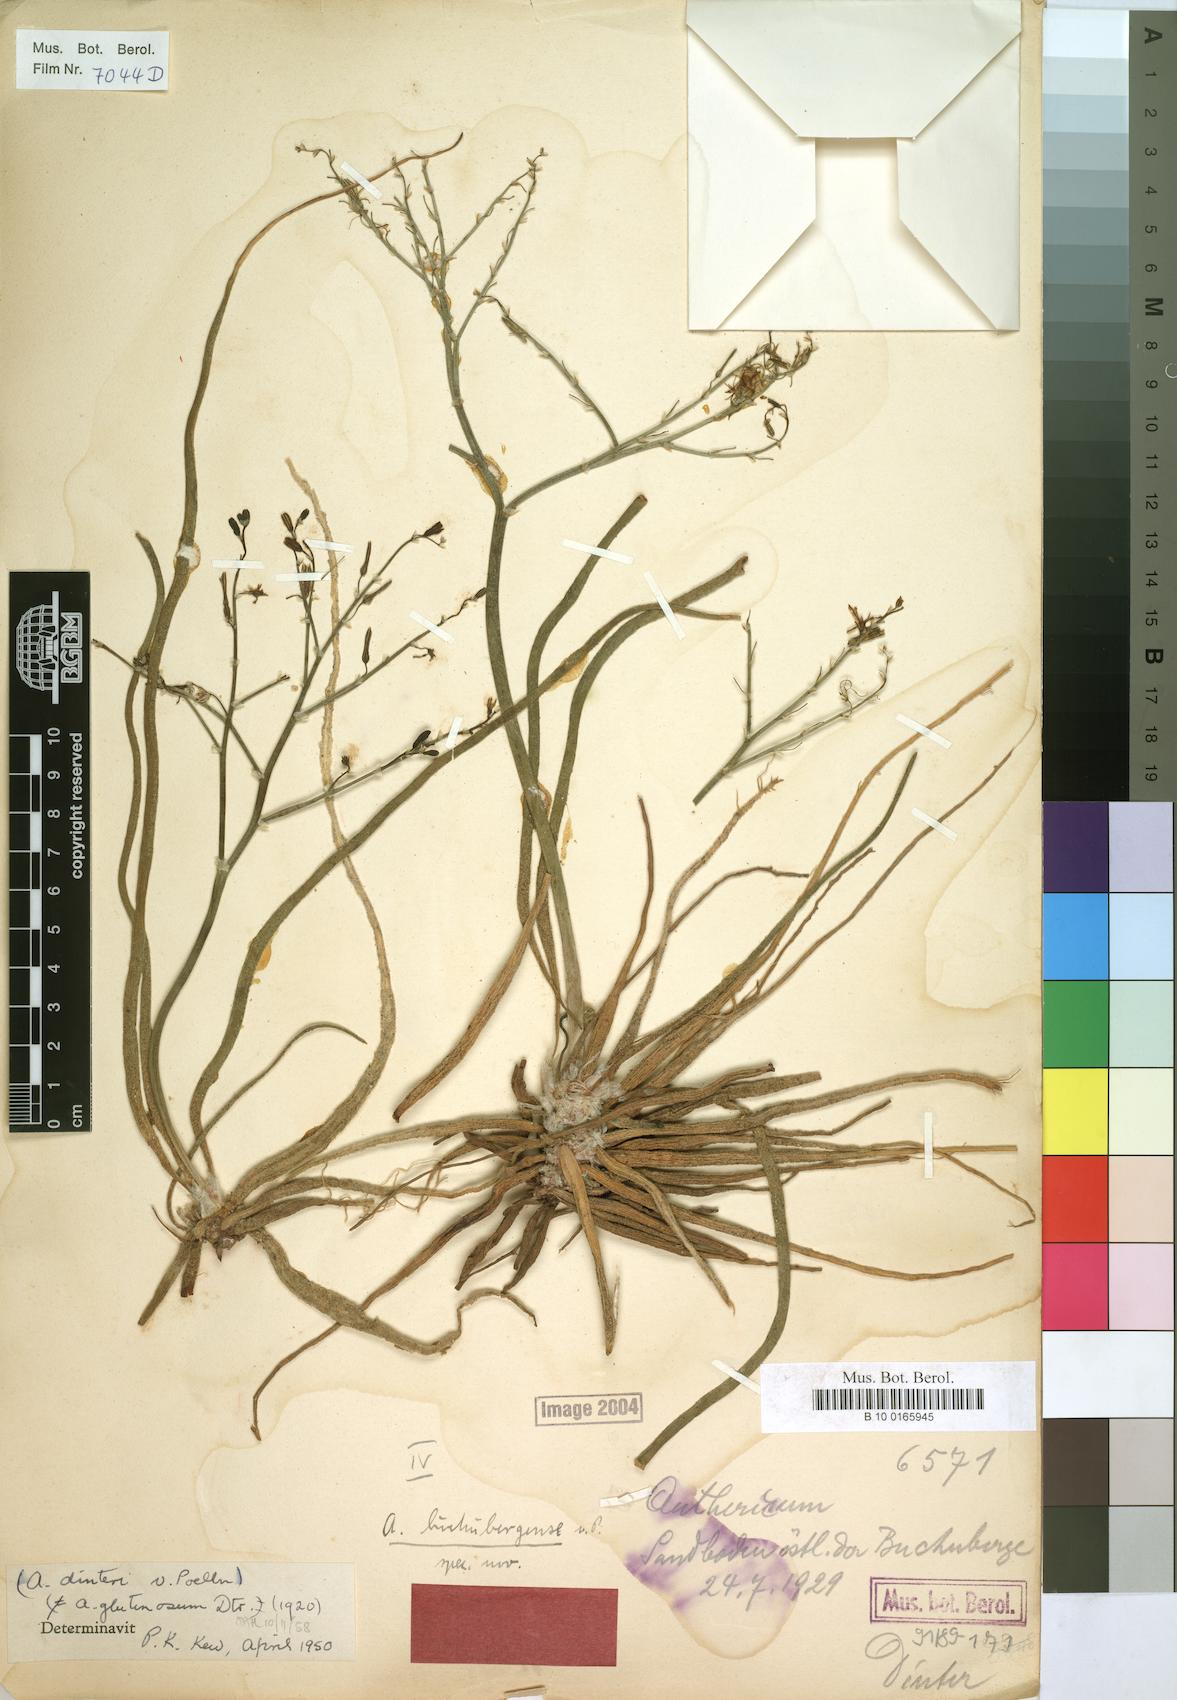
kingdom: Plantae
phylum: Tracheophyta
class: Liliopsida
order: Asparagales
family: Asphodelaceae
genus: Trachyandra
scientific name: Trachyandra laxa
